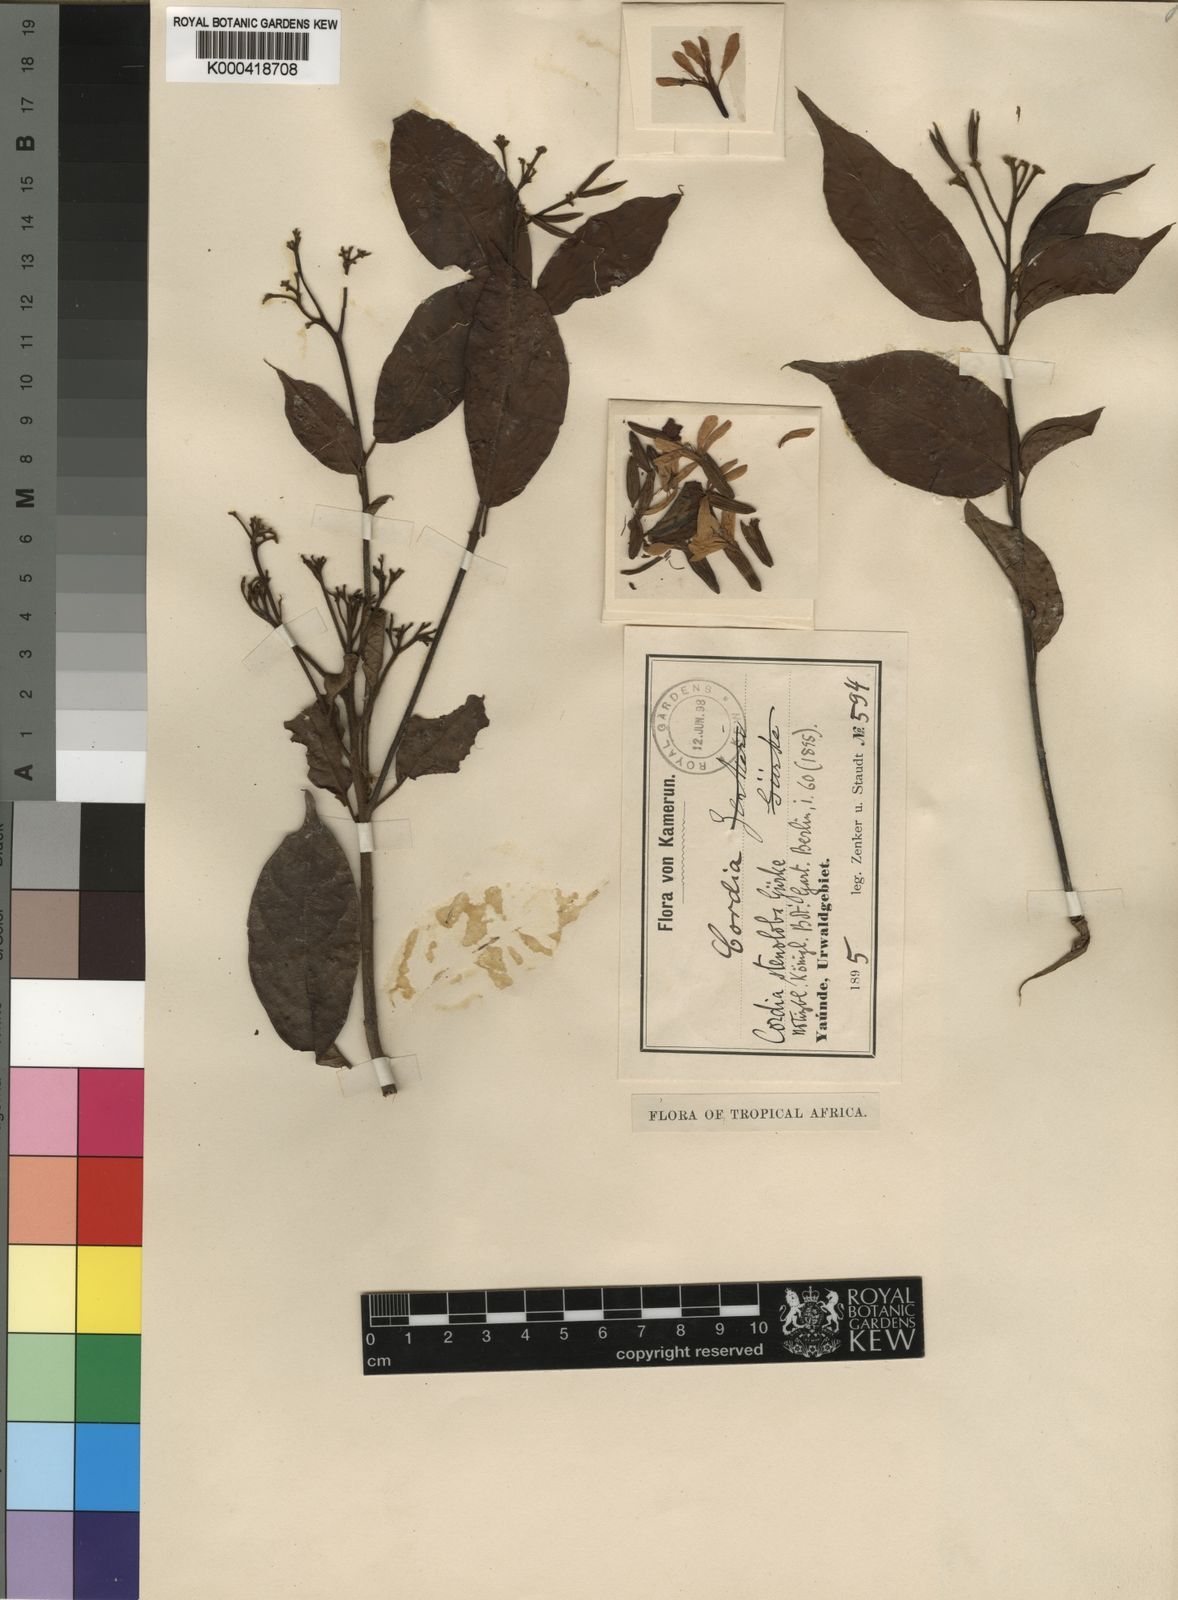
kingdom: Plantae
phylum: Tracheophyta
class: Magnoliopsida
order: Boraginales
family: Cordiaceae
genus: Cordia
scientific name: Cordia
